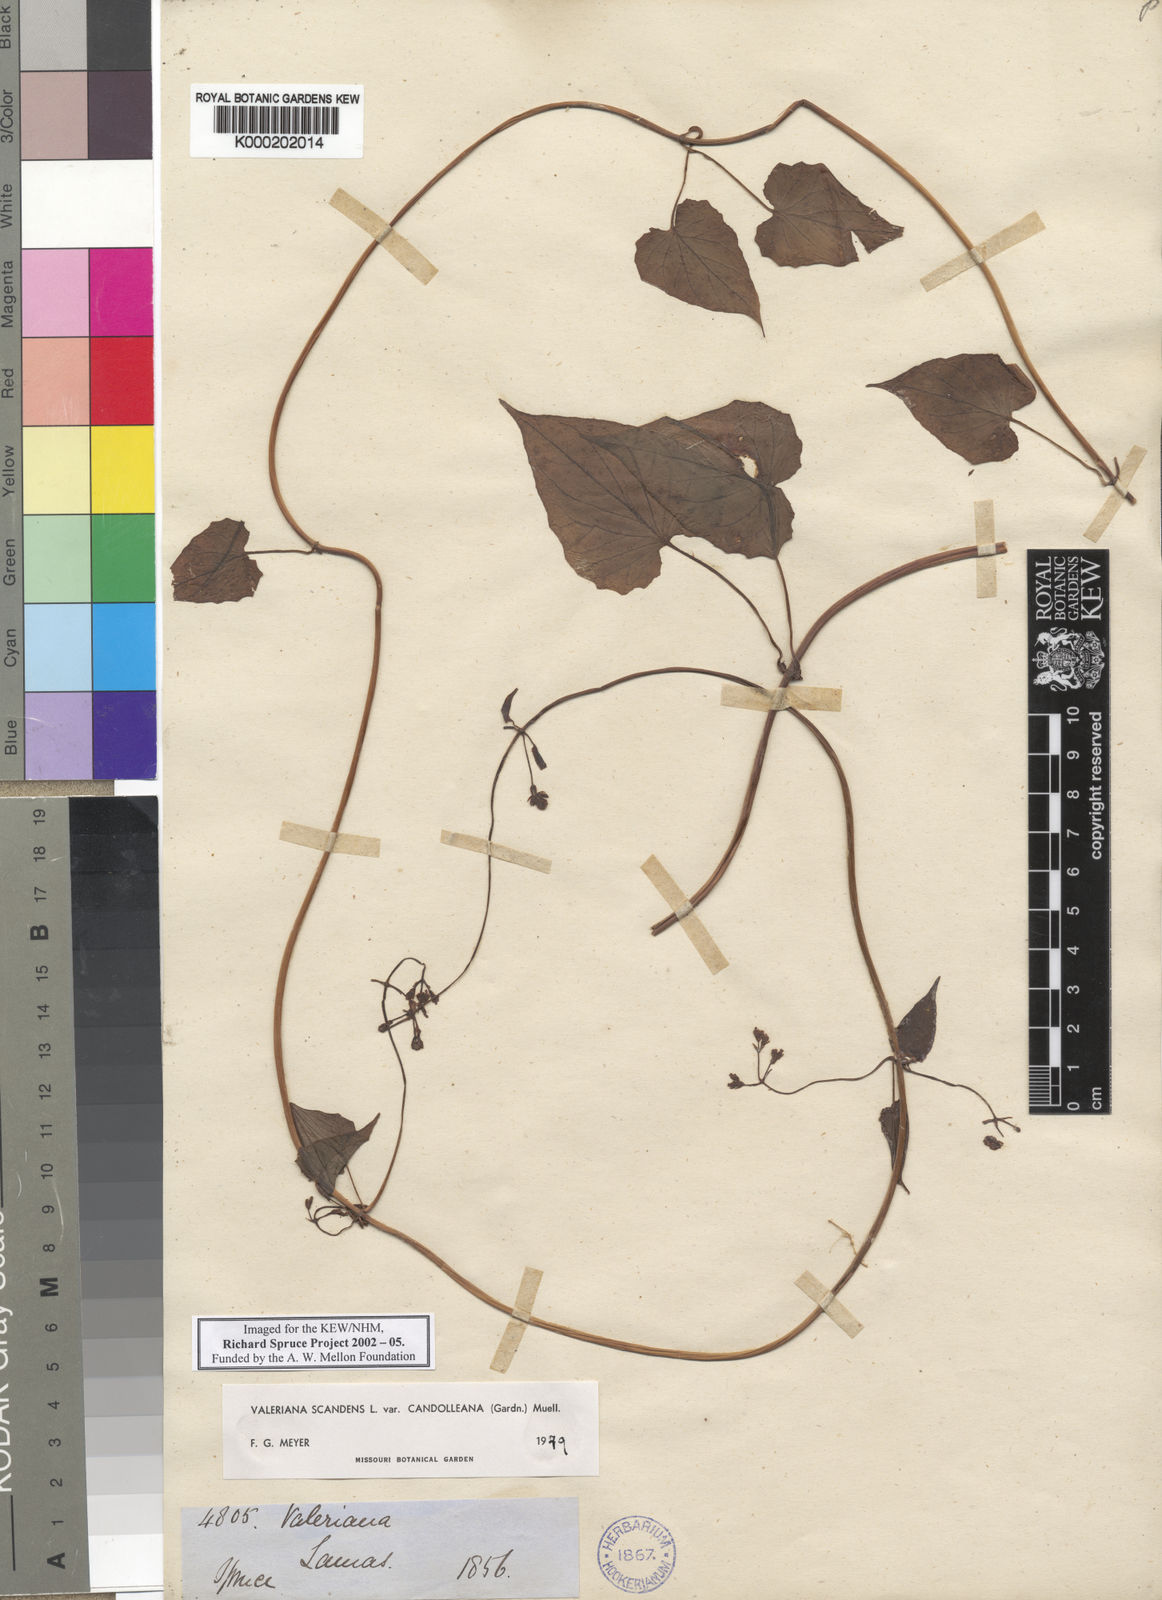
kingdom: Plantae
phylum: Tracheophyta
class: Magnoliopsida
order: Dipsacales
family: Caprifoliaceae
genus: Valeriana
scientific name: Valeriana
